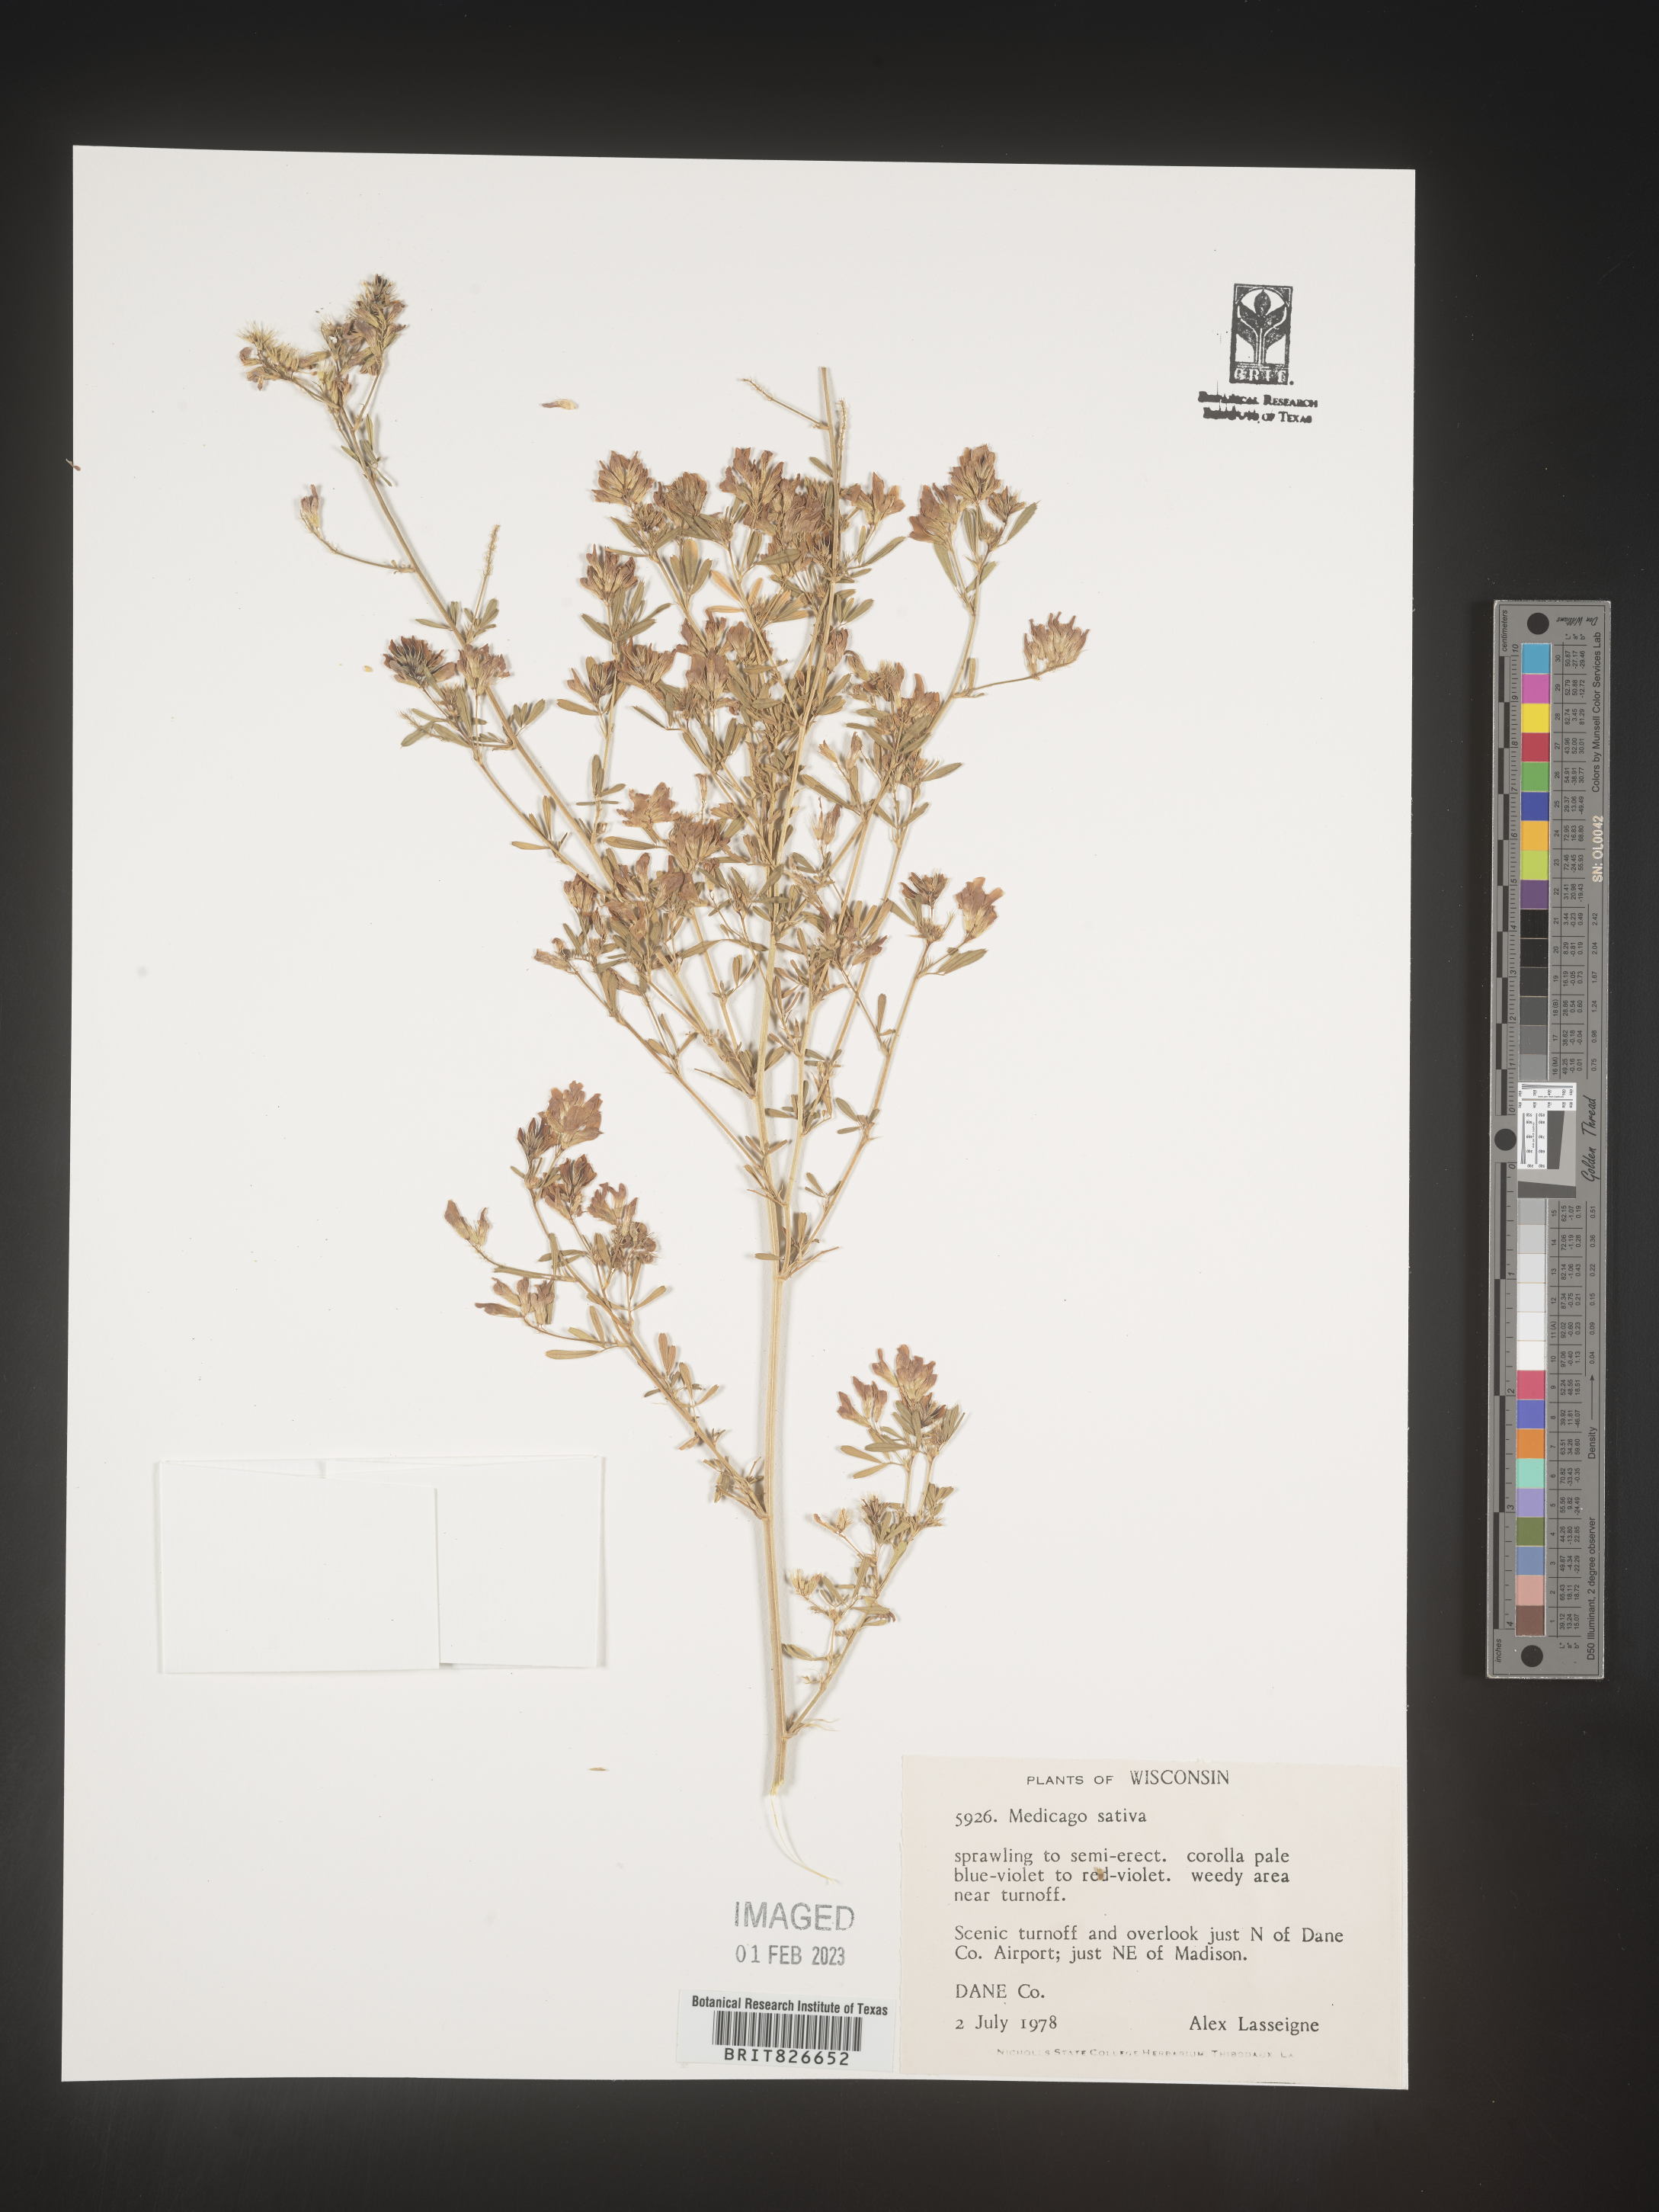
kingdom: Plantae
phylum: Tracheophyta
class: Magnoliopsida
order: Fabales
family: Fabaceae
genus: Medicago
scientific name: Medicago sativa
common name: Alfalfa
